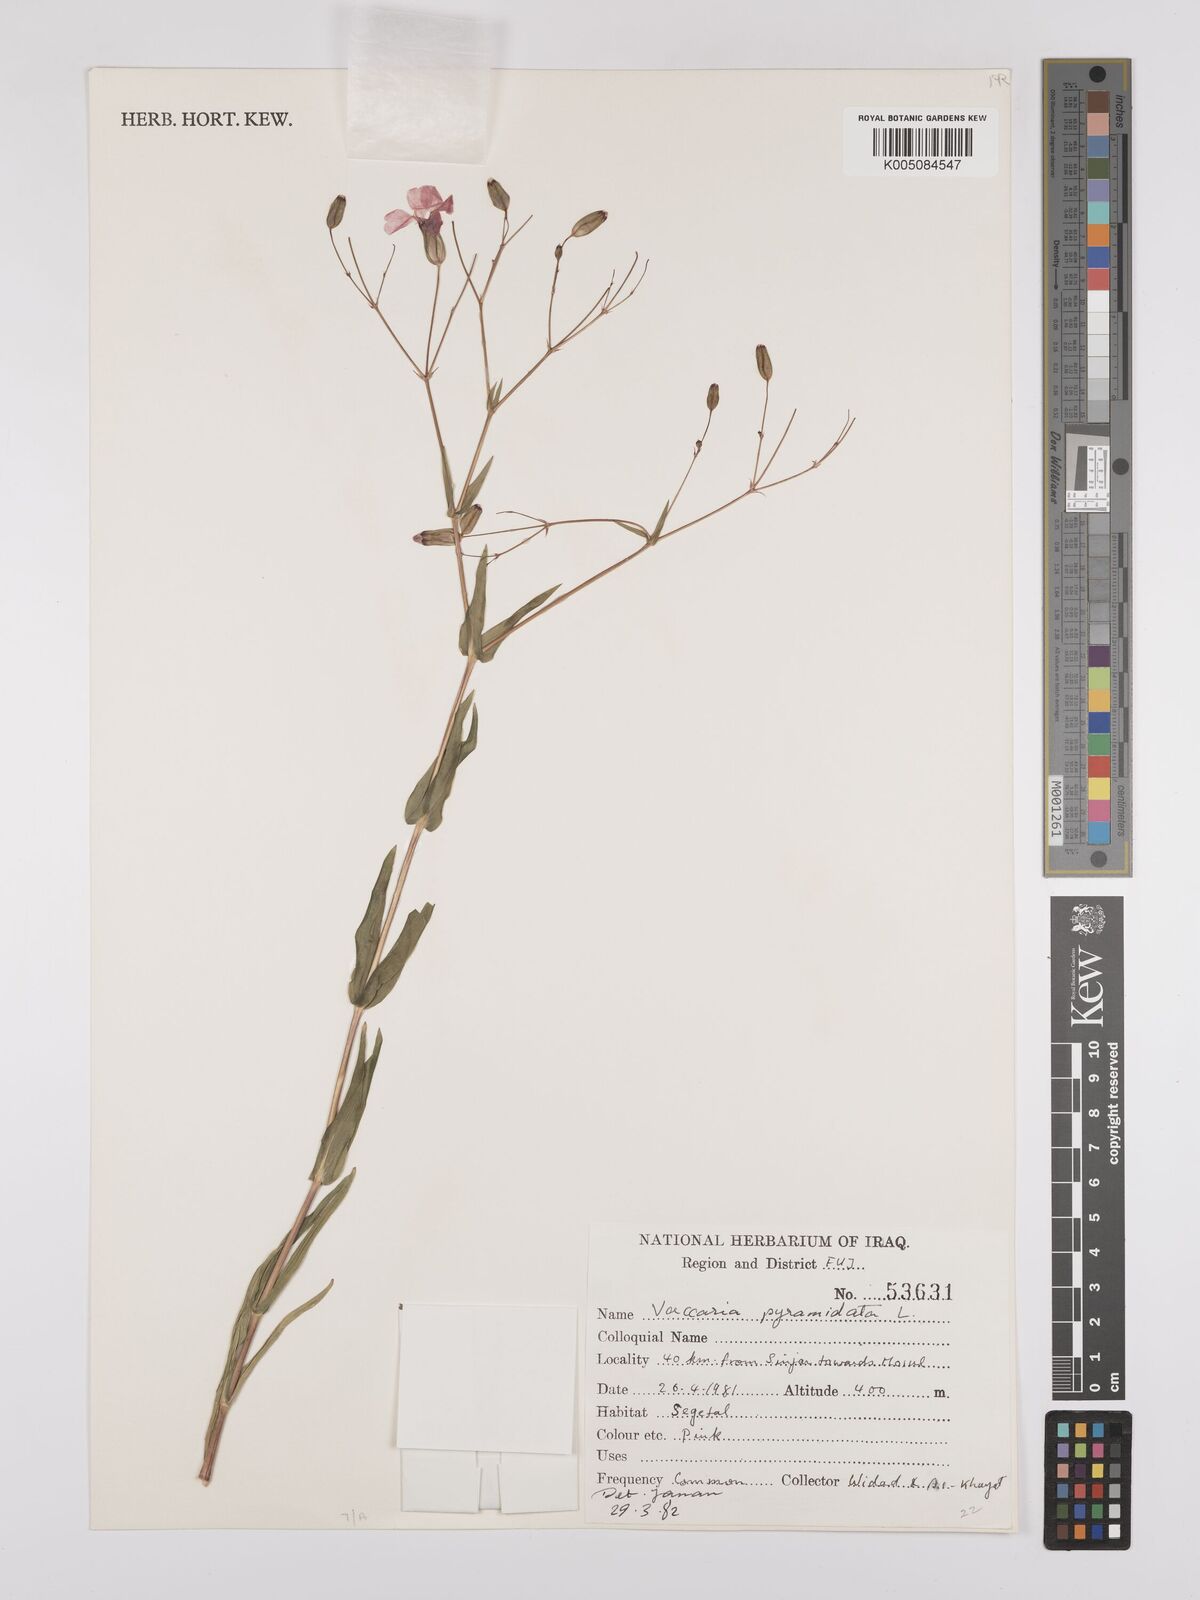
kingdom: Plantae
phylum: Tracheophyta
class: Magnoliopsida
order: Caryophyllales
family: Caryophyllaceae
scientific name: Caryophyllaceae
